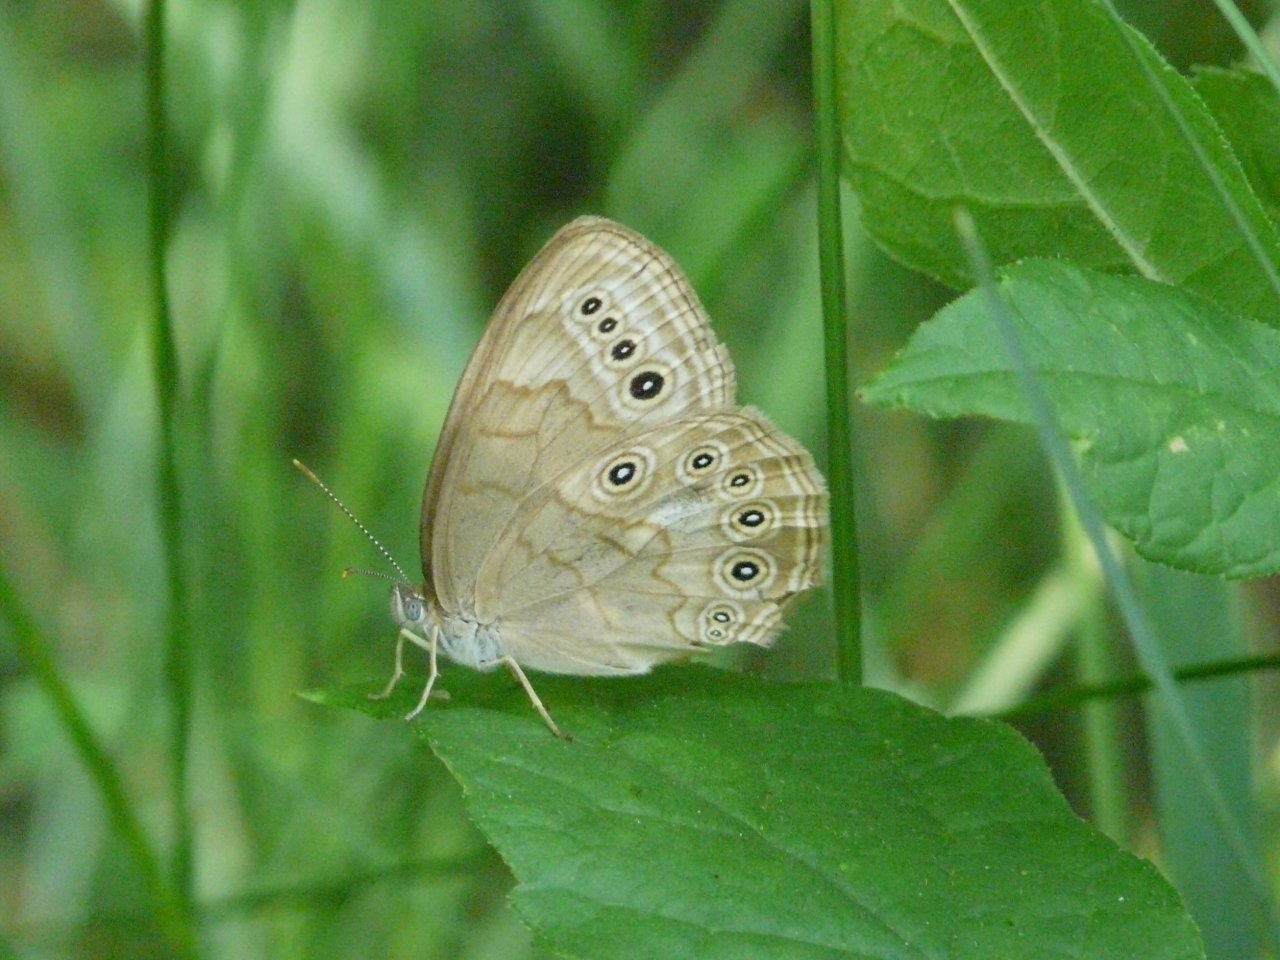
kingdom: Animalia
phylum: Arthropoda
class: Insecta
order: Lepidoptera
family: Nymphalidae
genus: Lethe
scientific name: Lethe eurydice
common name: Eyed Brown
